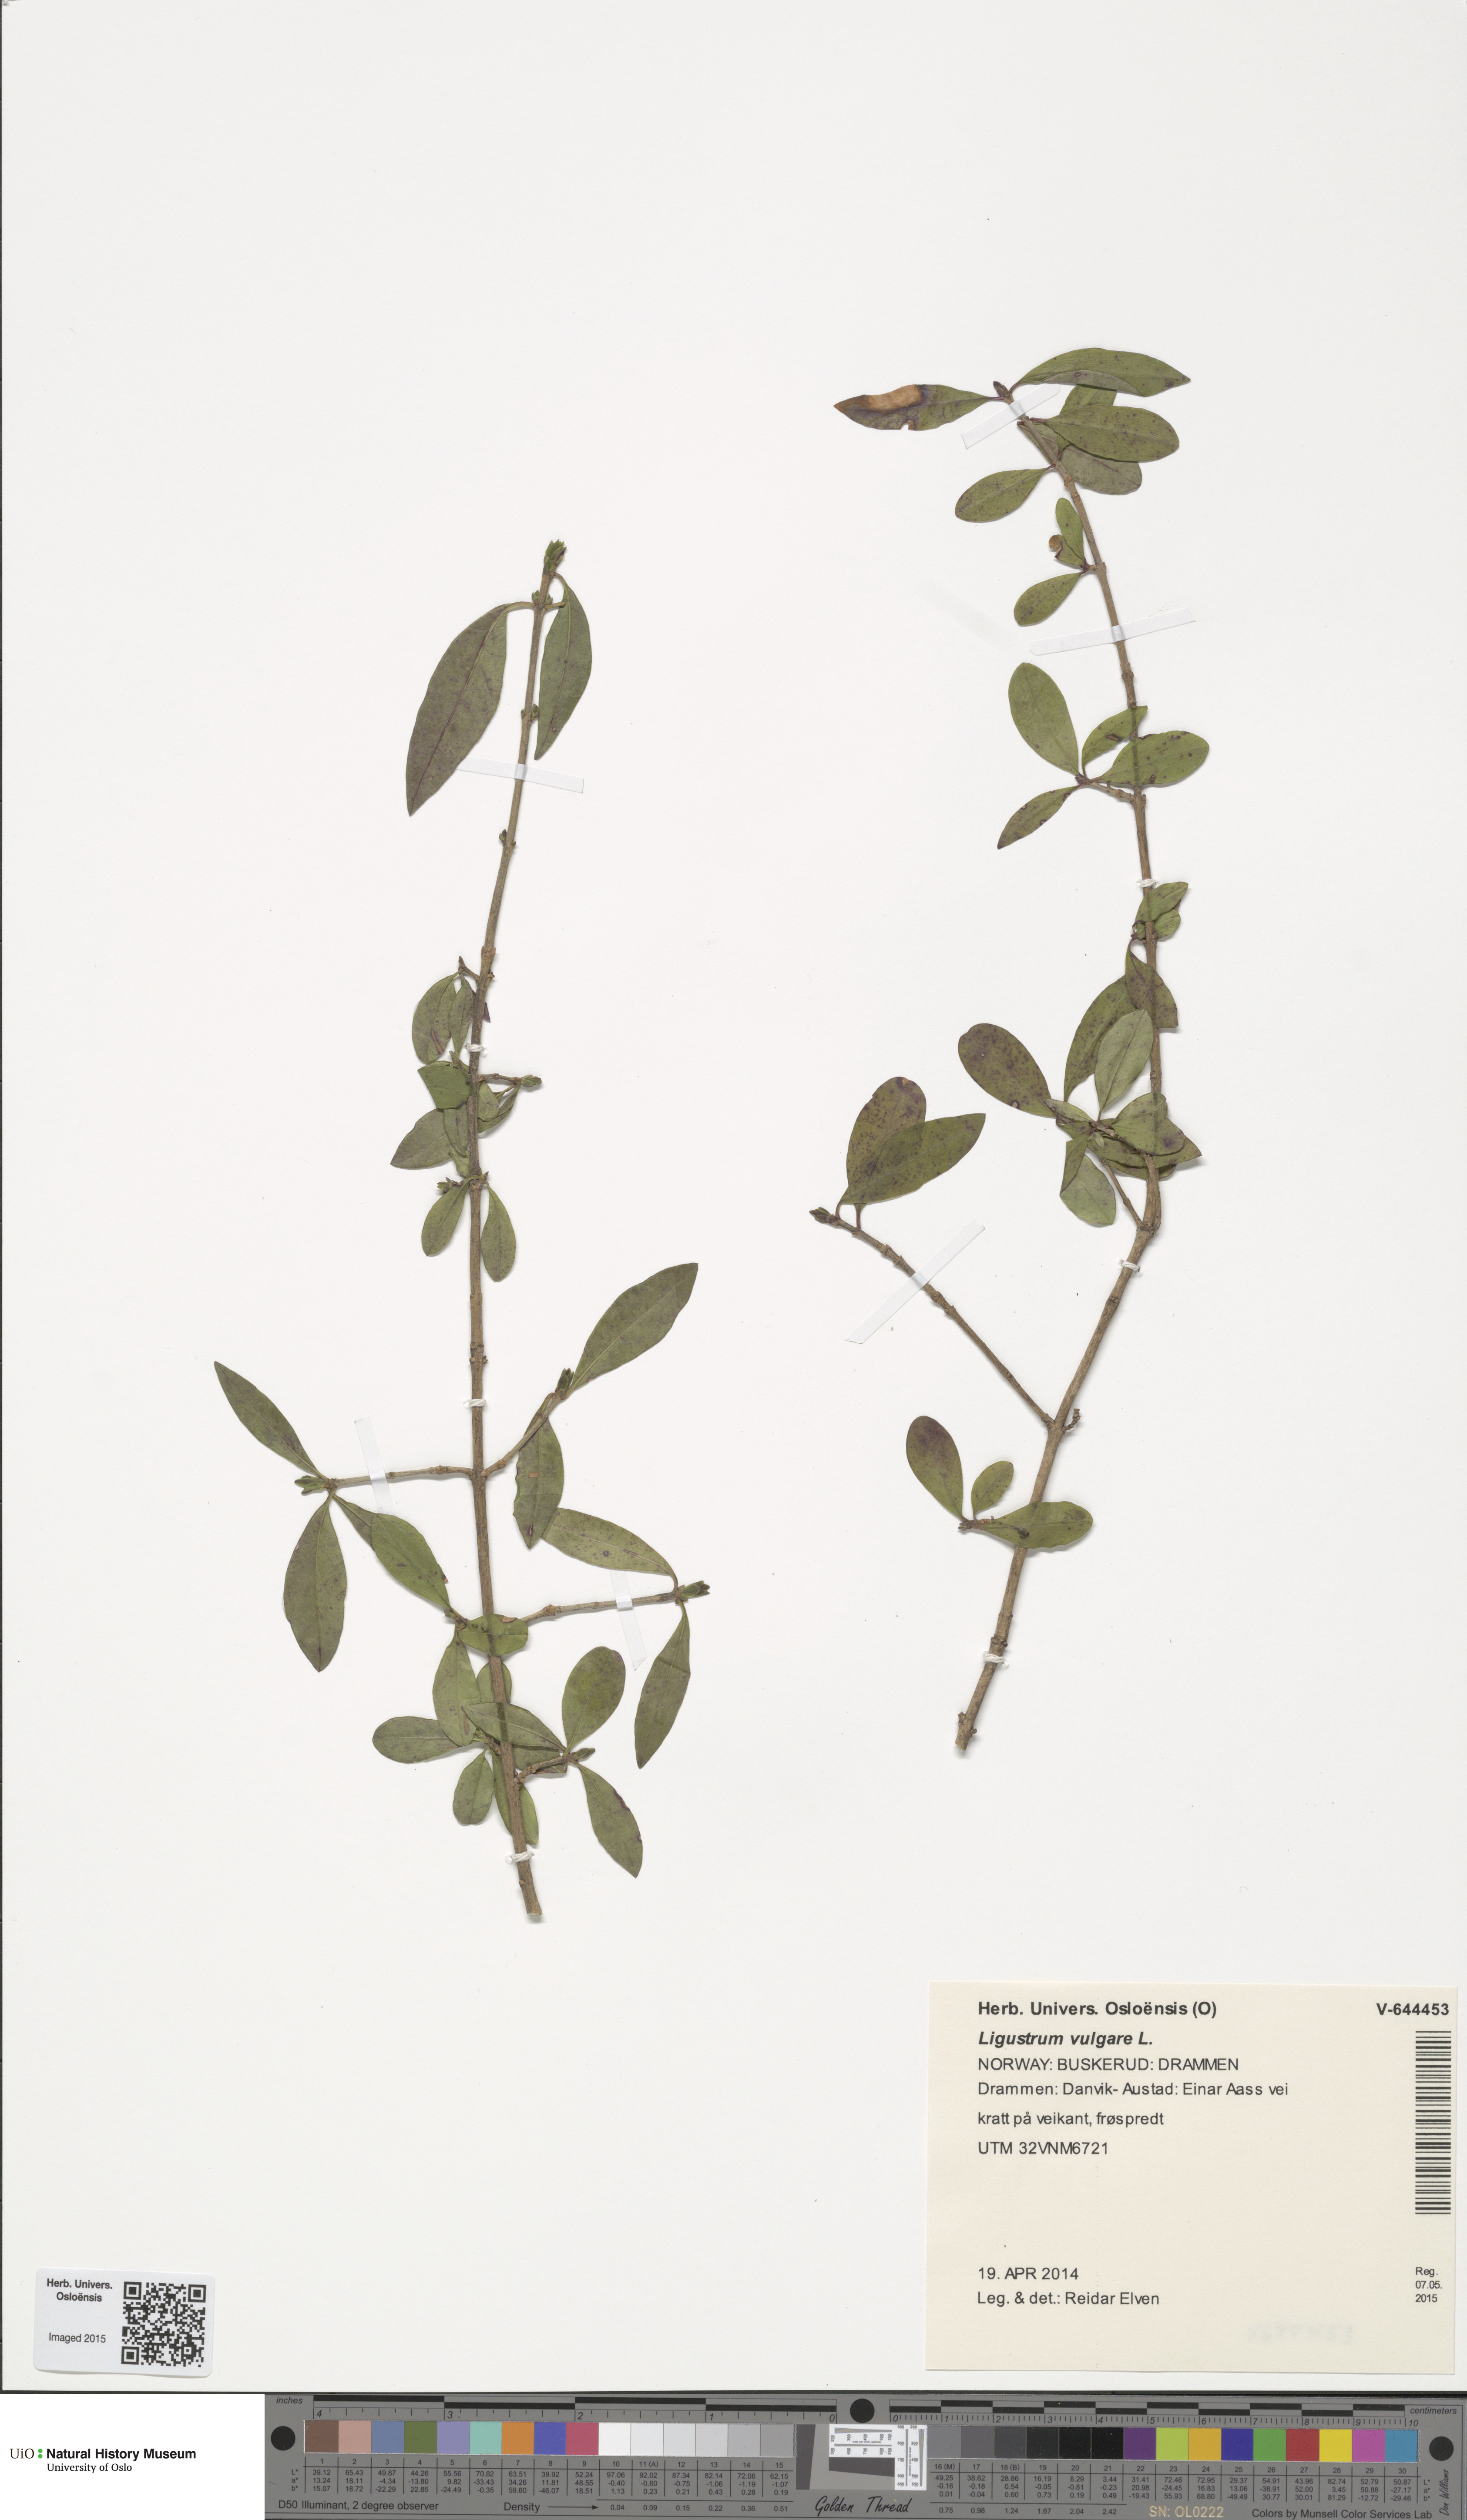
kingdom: Plantae
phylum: Tracheophyta
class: Magnoliopsida
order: Lamiales
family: Oleaceae
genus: Ligustrum
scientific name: Ligustrum vulgare
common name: Wild privet
